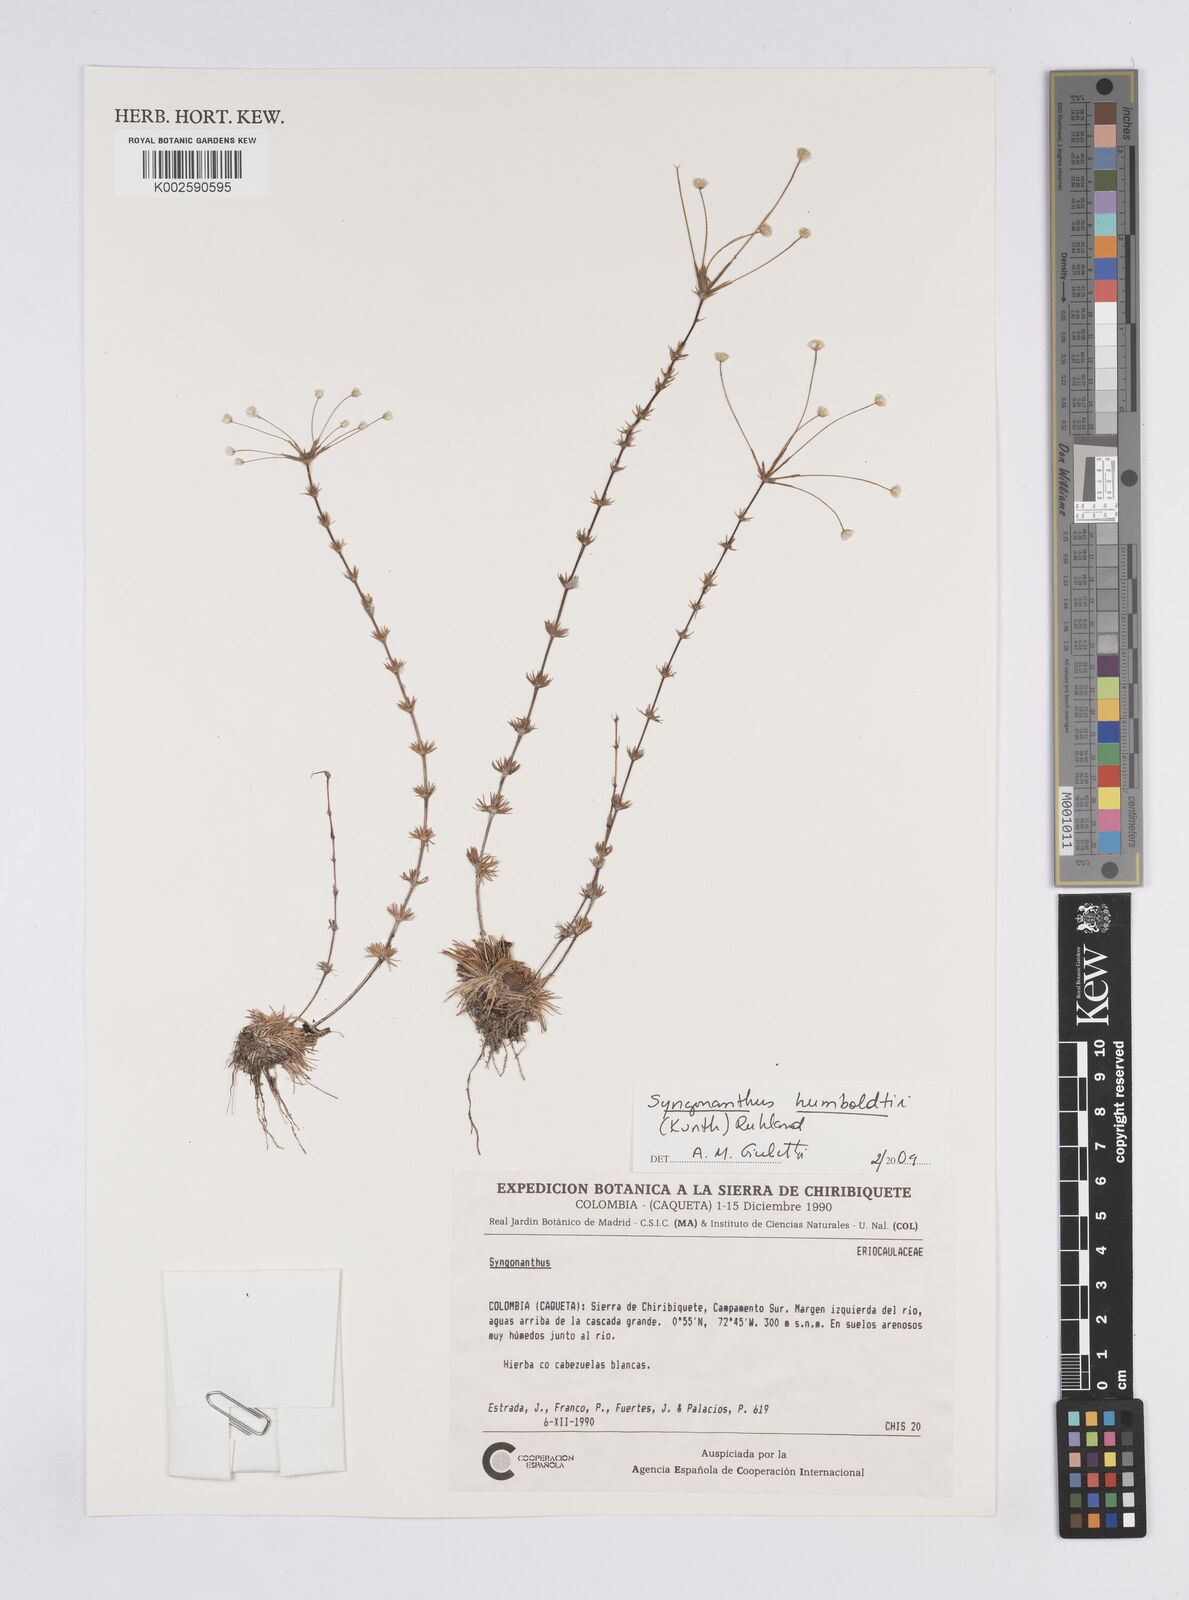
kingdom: Plantae
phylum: Tracheophyta
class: Liliopsida
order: Poales
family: Eriocaulaceae
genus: Syngonanthus
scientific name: Syngonanthus humboldtii
